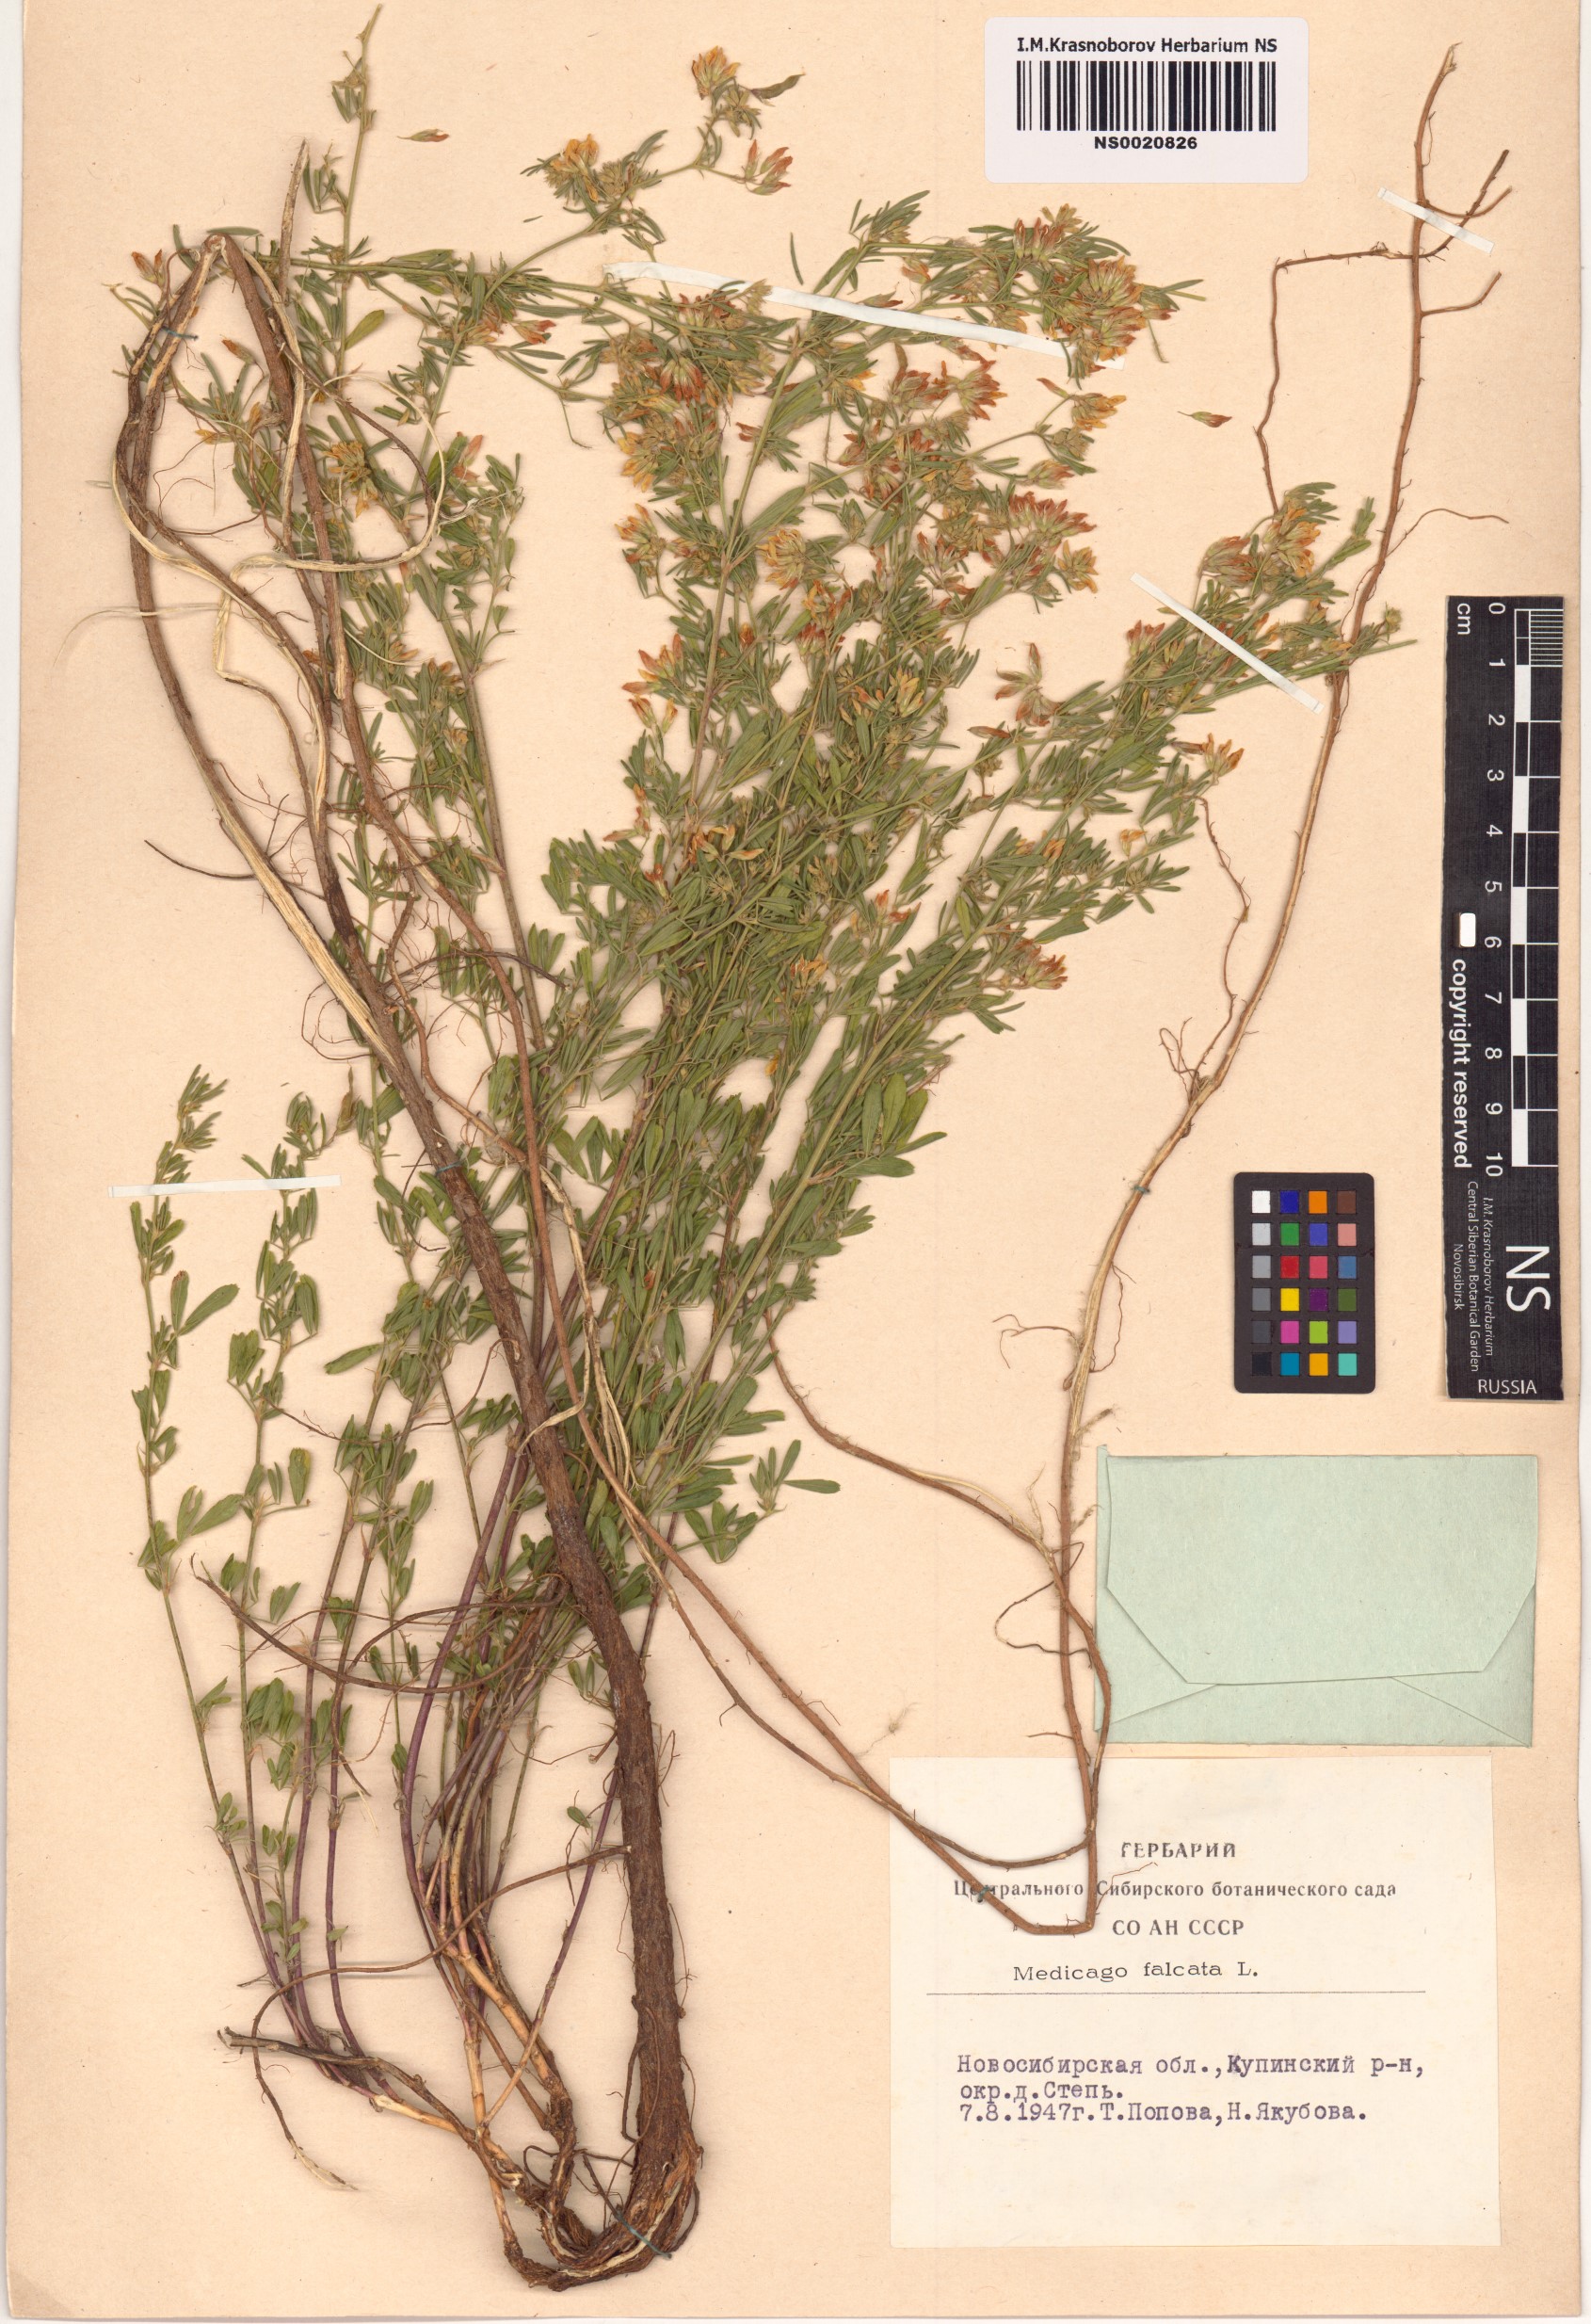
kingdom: Plantae
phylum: Tracheophyta
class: Magnoliopsida
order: Fabales
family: Fabaceae
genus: Medicago
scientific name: Medicago falcata
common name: Sickle medick
